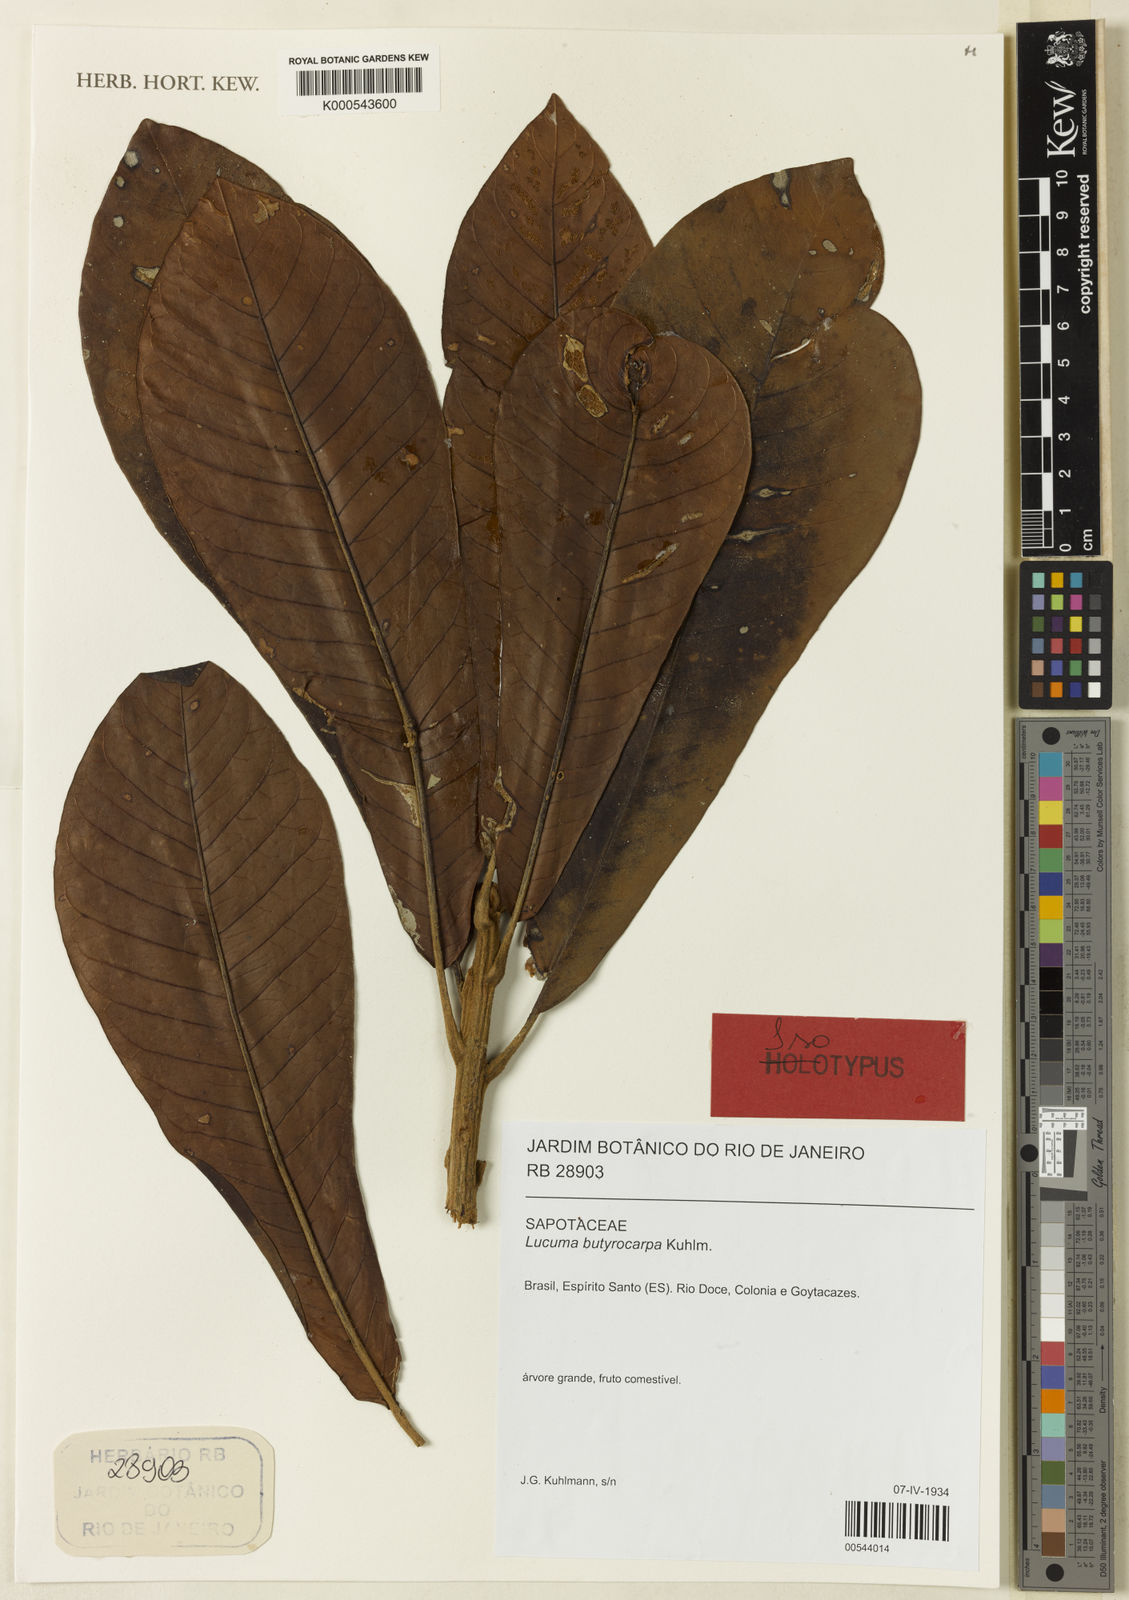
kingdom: Plantae
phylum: Tracheophyta
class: Magnoliopsida
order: Ericales
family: Sapotaceae
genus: Pouteria
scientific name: Pouteria butyrocarpa
